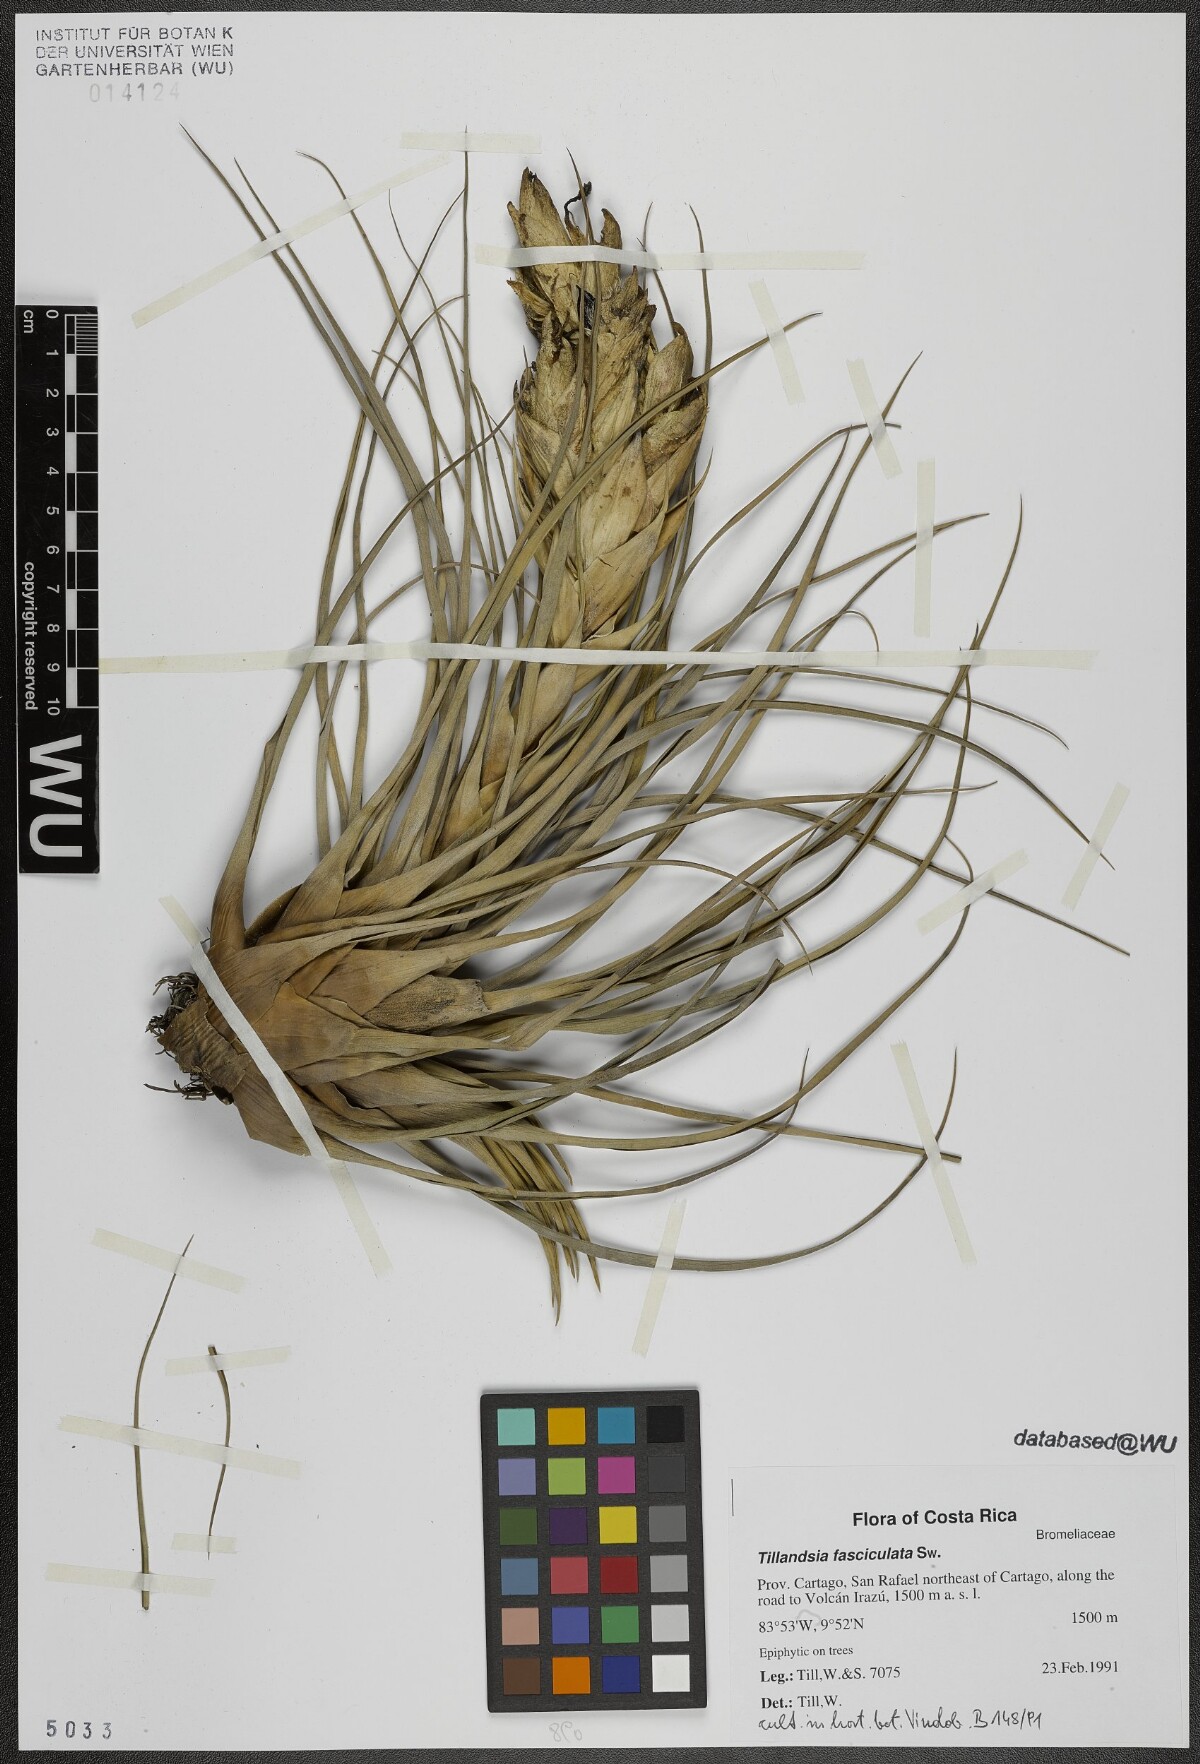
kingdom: Plantae
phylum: Tracheophyta
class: Liliopsida
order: Poales
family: Bromeliaceae
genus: Tillandsia
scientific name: Tillandsia fasciculata
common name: Giant airplant
